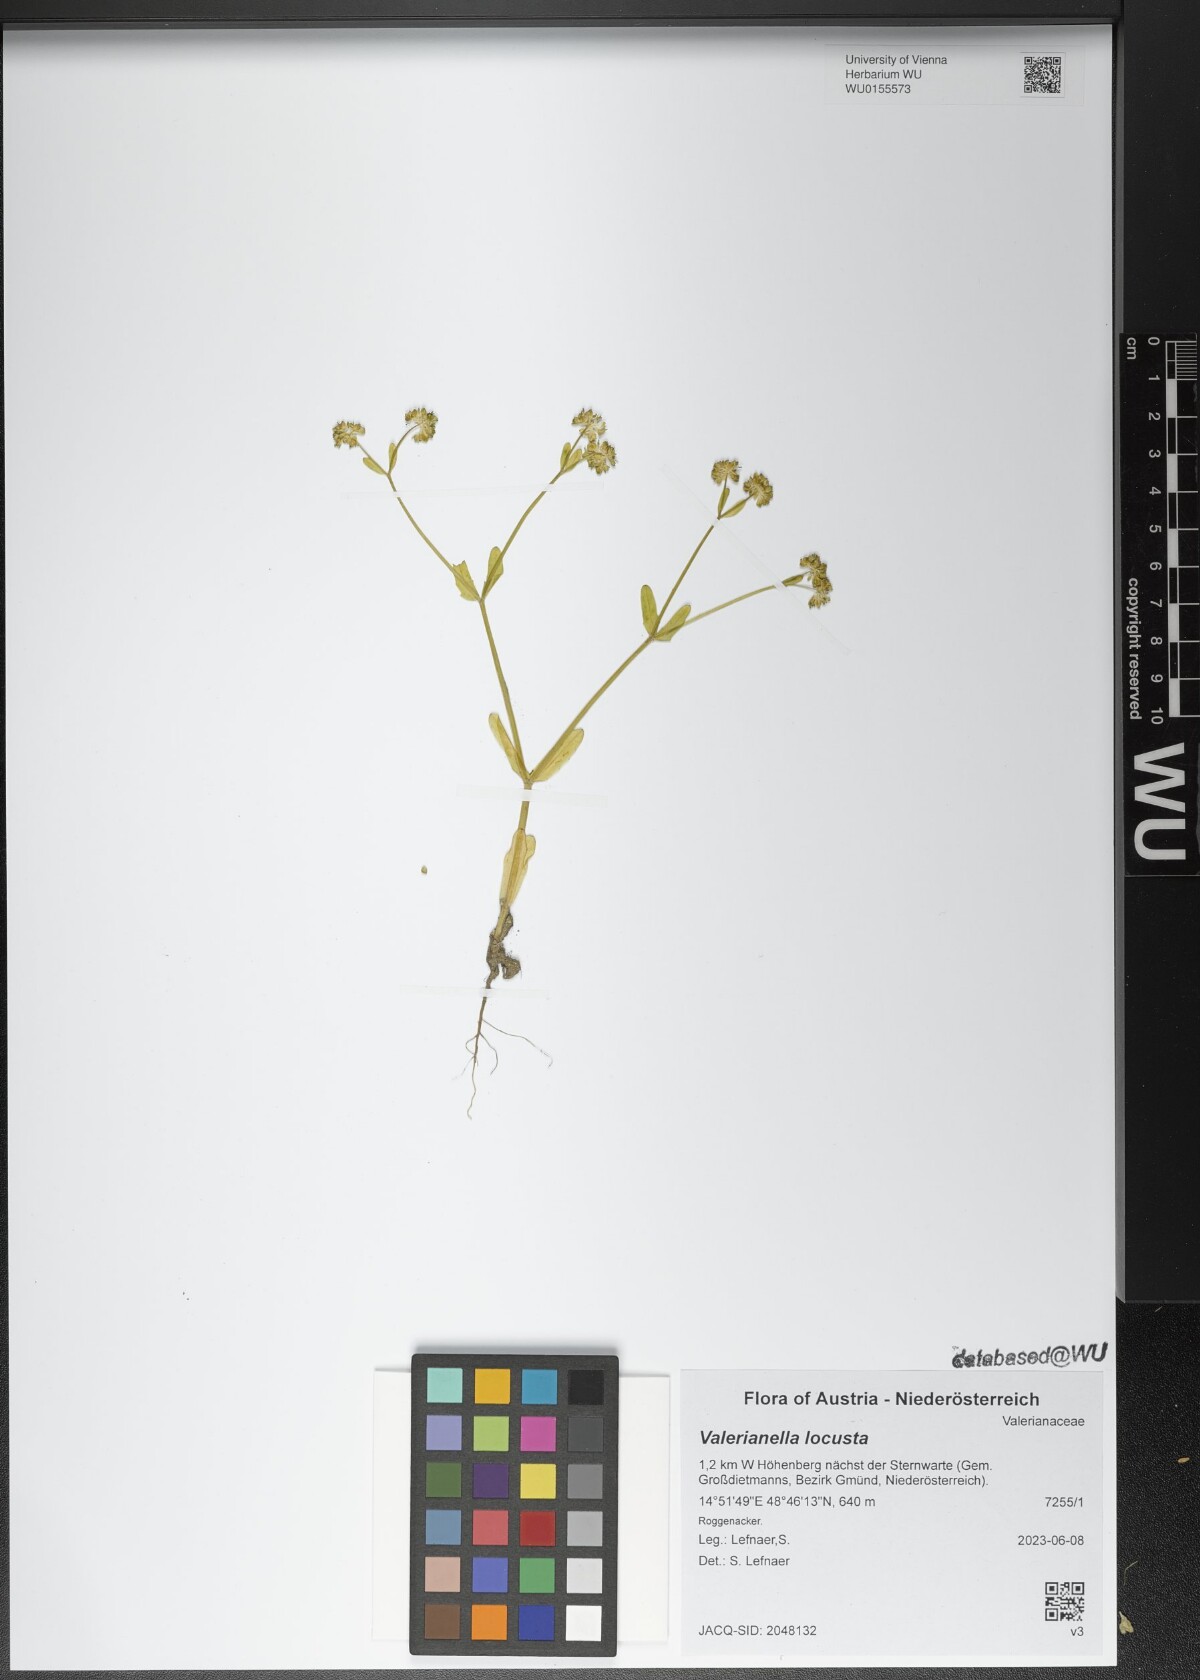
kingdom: Plantae
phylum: Tracheophyta
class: Magnoliopsida
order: Dipsacales
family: Caprifoliaceae
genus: Valerianella
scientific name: Valerianella locusta
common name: Common cornsalad
